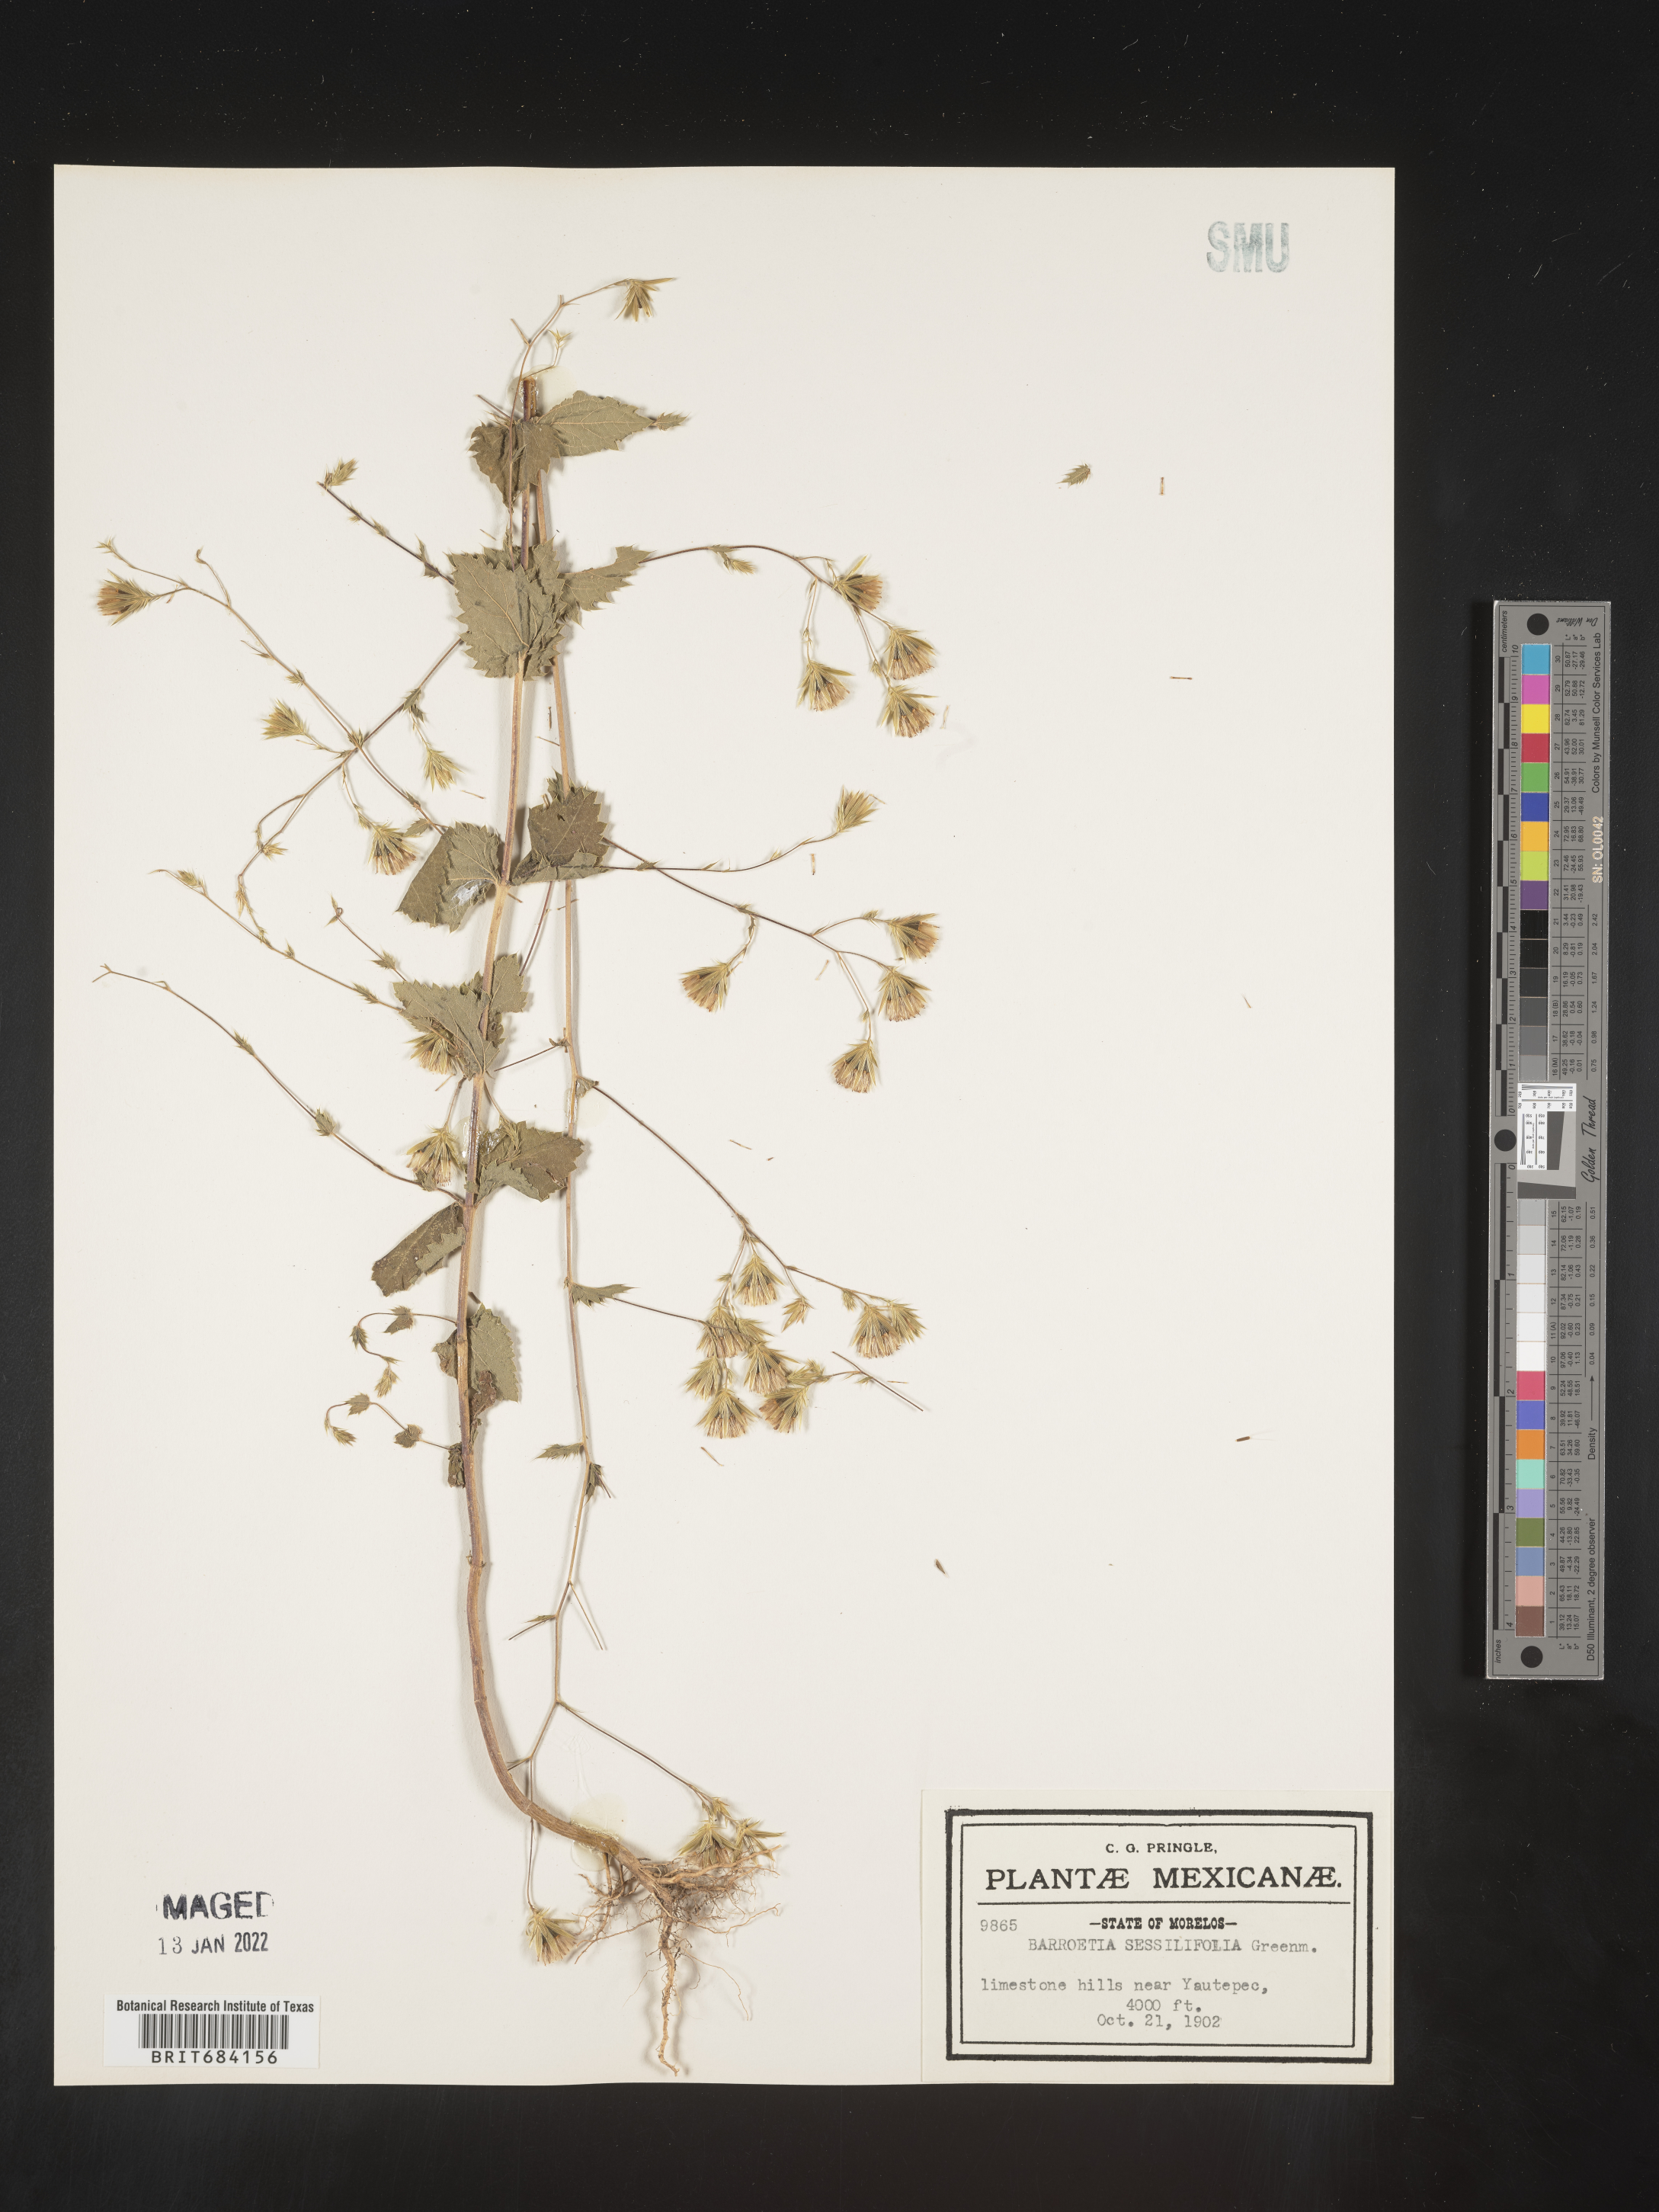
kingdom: Plantae
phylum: Tracheophyta
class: Magnoliopsida
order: Asterales
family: Asteraceae
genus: Brickellia
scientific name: Brickellia
